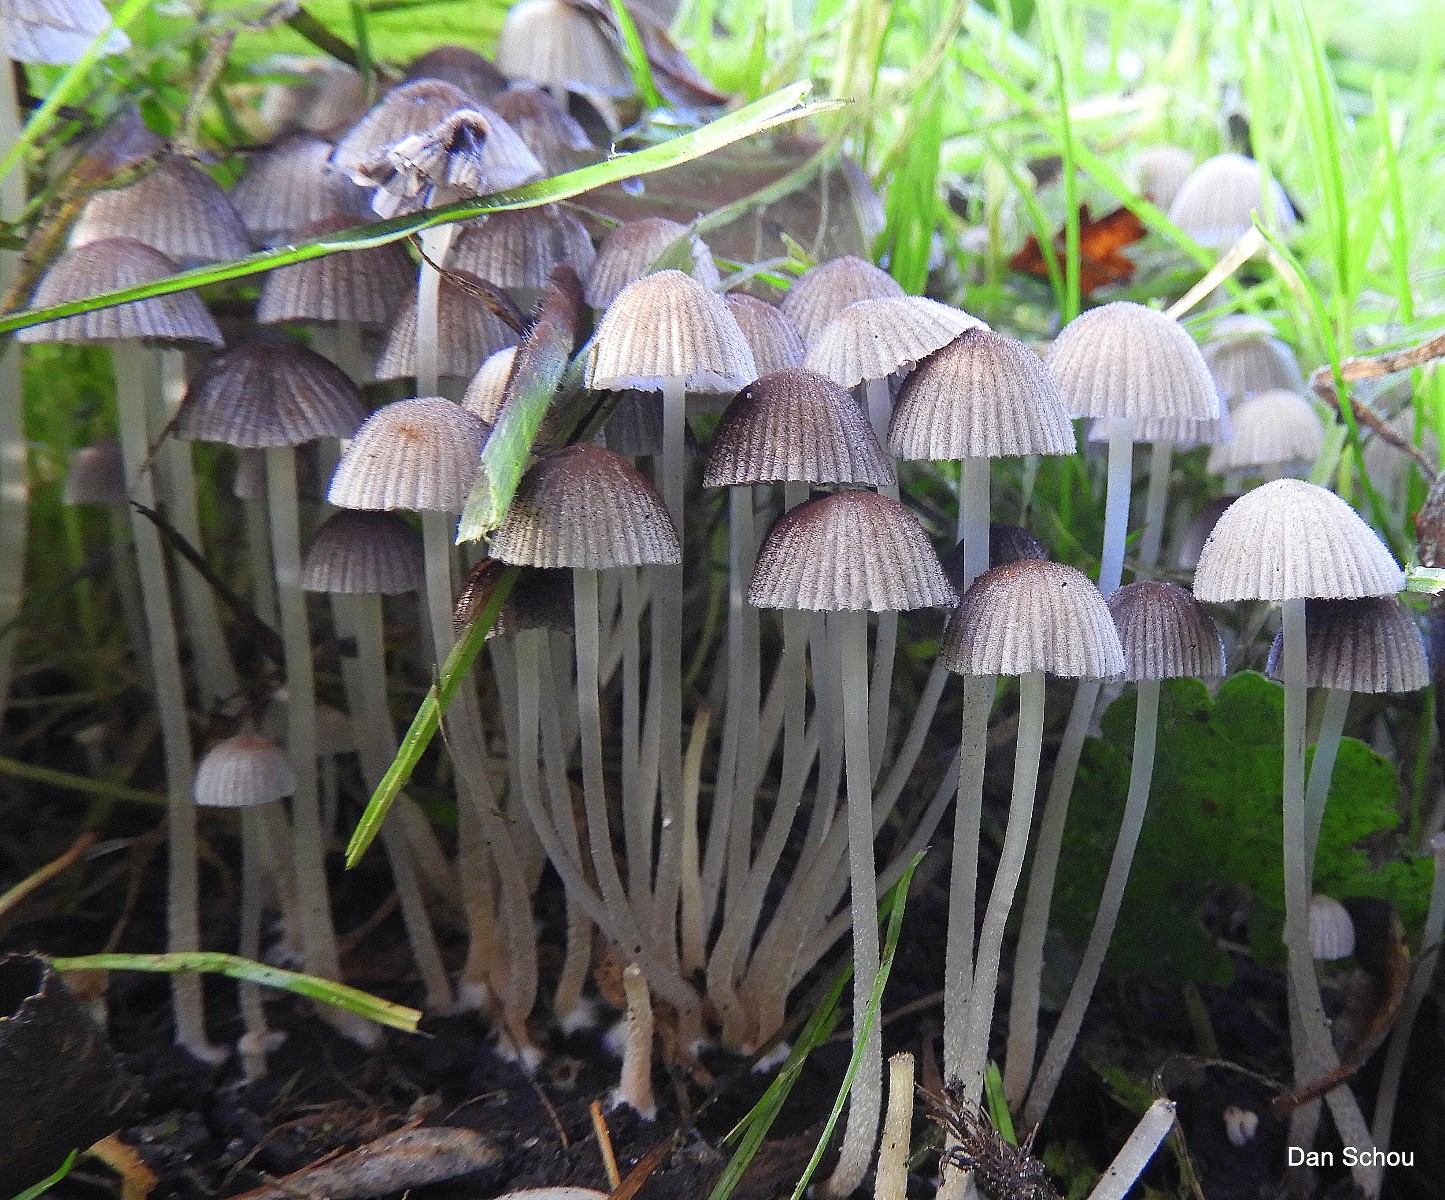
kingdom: Fungi
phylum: Basidiomycota
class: Agaricomycetes
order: Agaricales
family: Psathyrellaceae
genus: Coprinellus
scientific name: Coprinellus disseminatus
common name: bredsået blækhat
